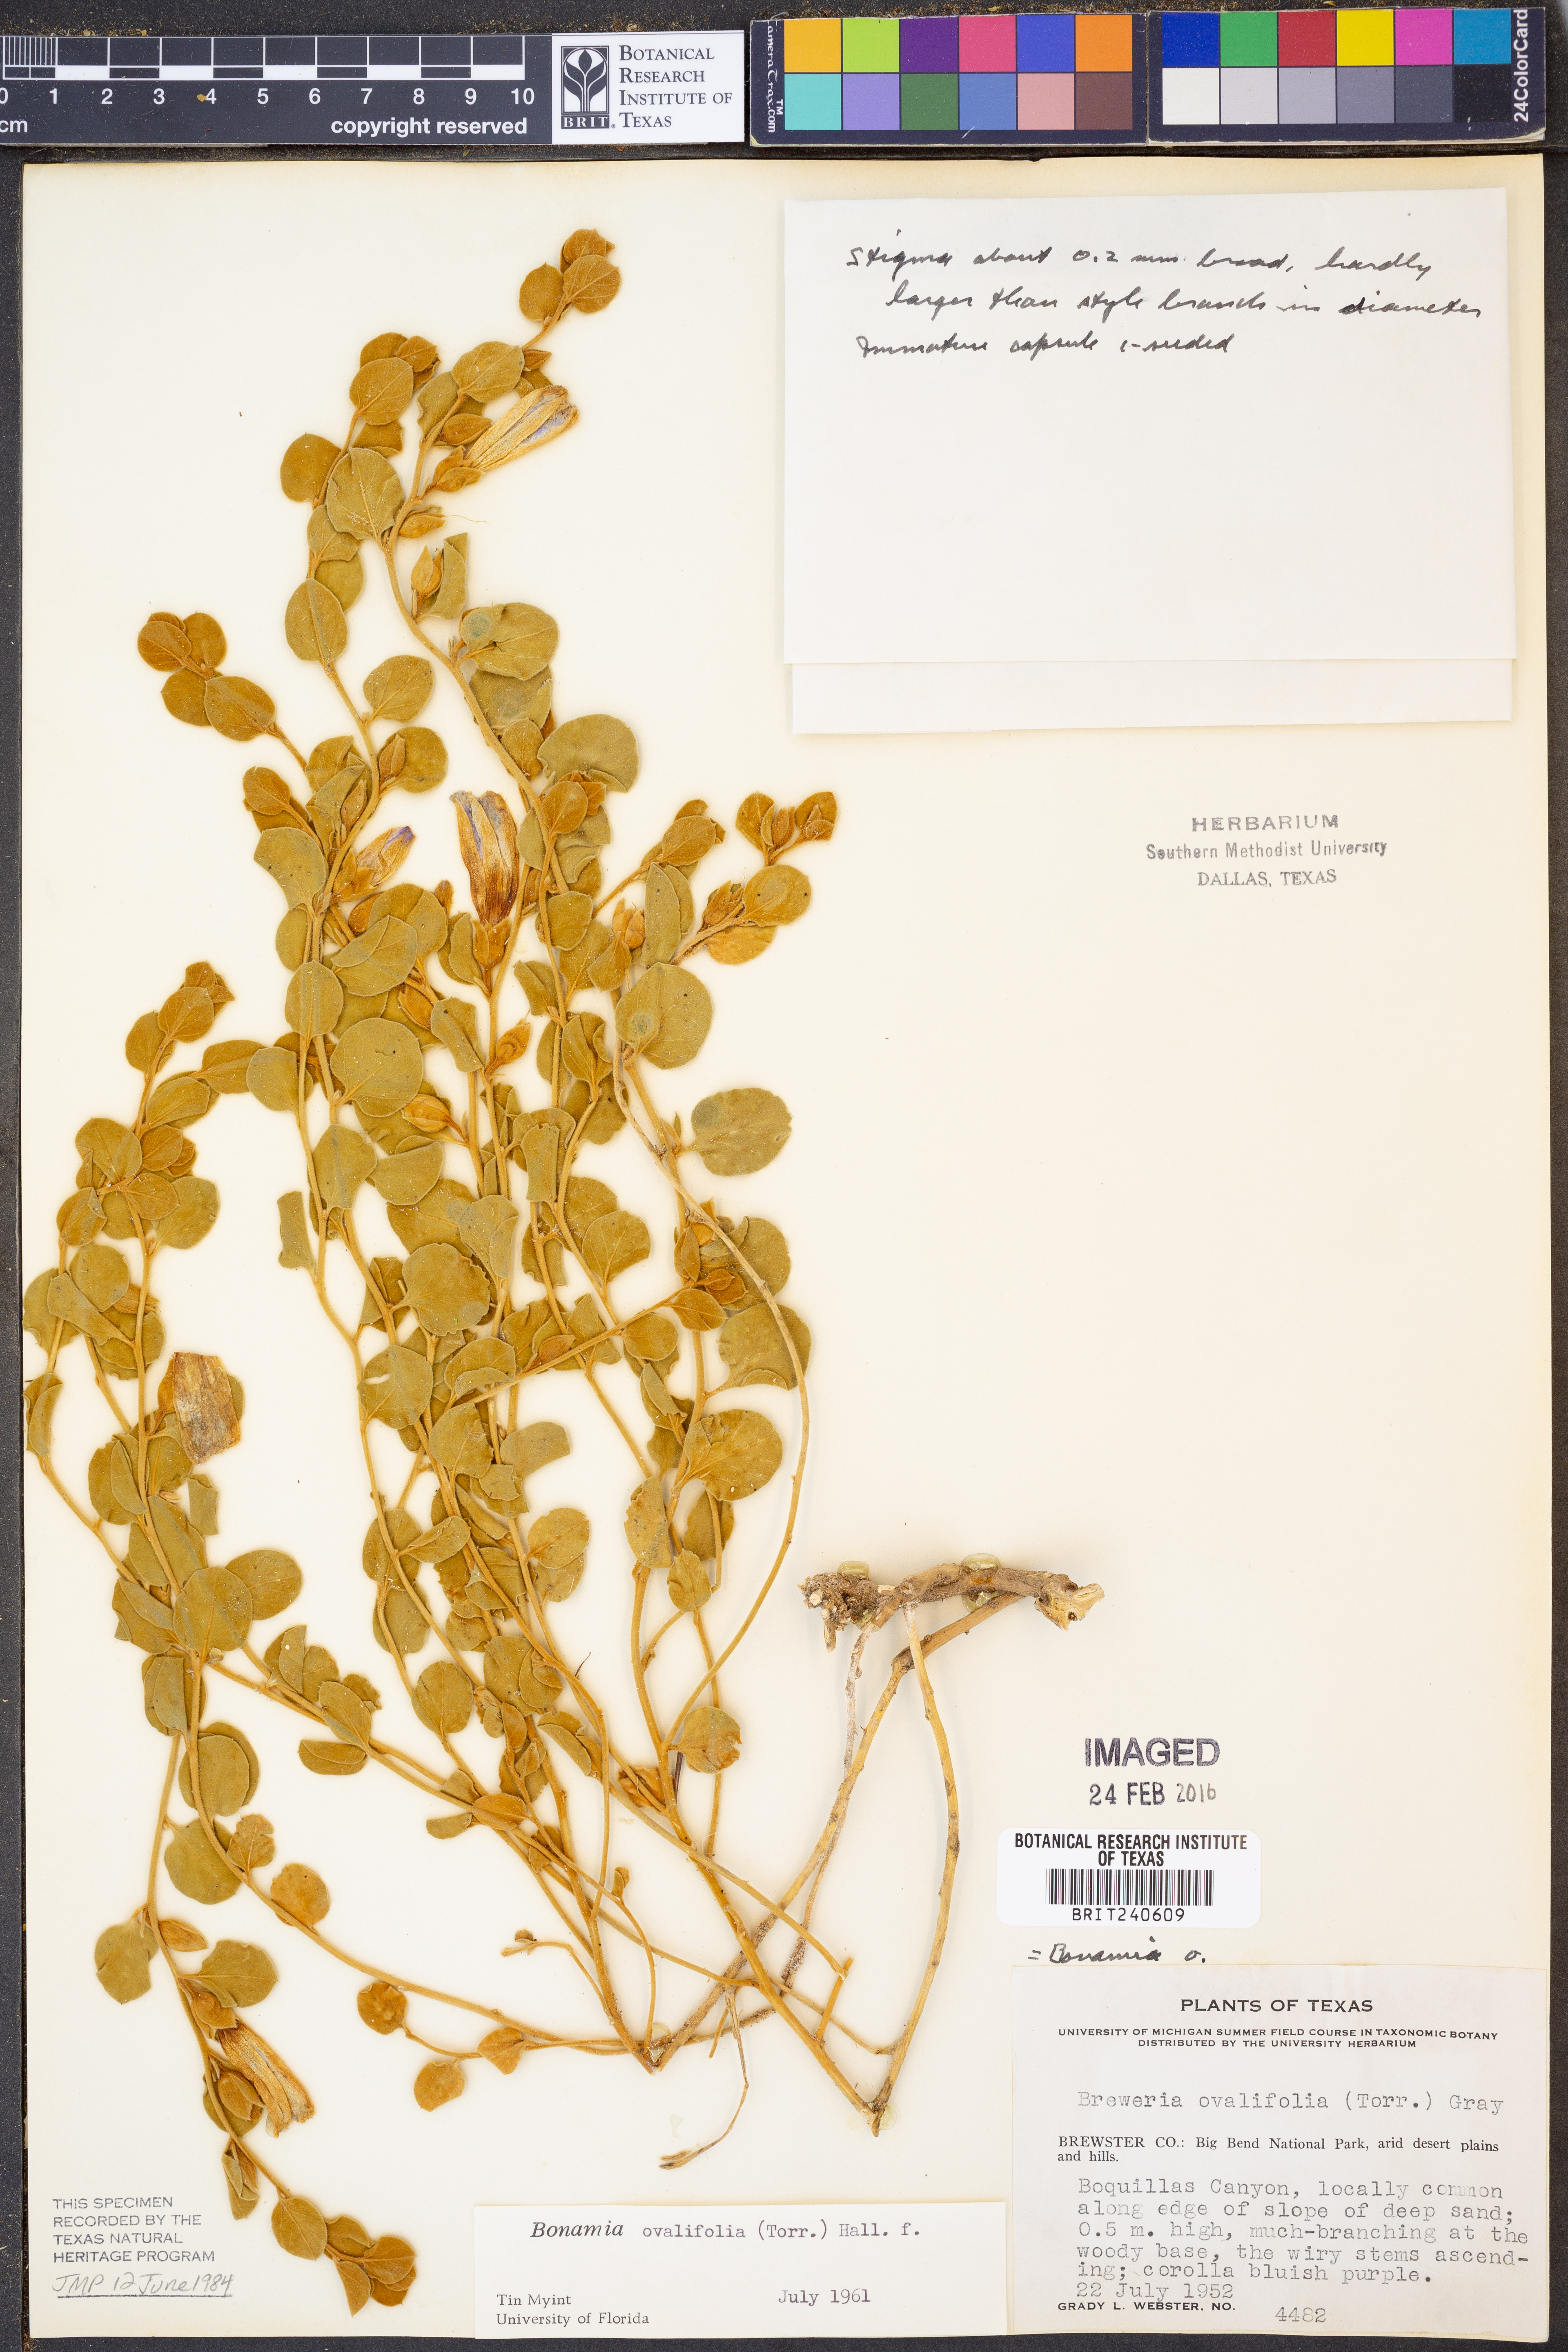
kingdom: Plantae
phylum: Tracheophyta
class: Magnoliopsida
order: Solanales
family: Convolvulaceae
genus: Bonamia
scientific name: Bonamia ovalifolia
